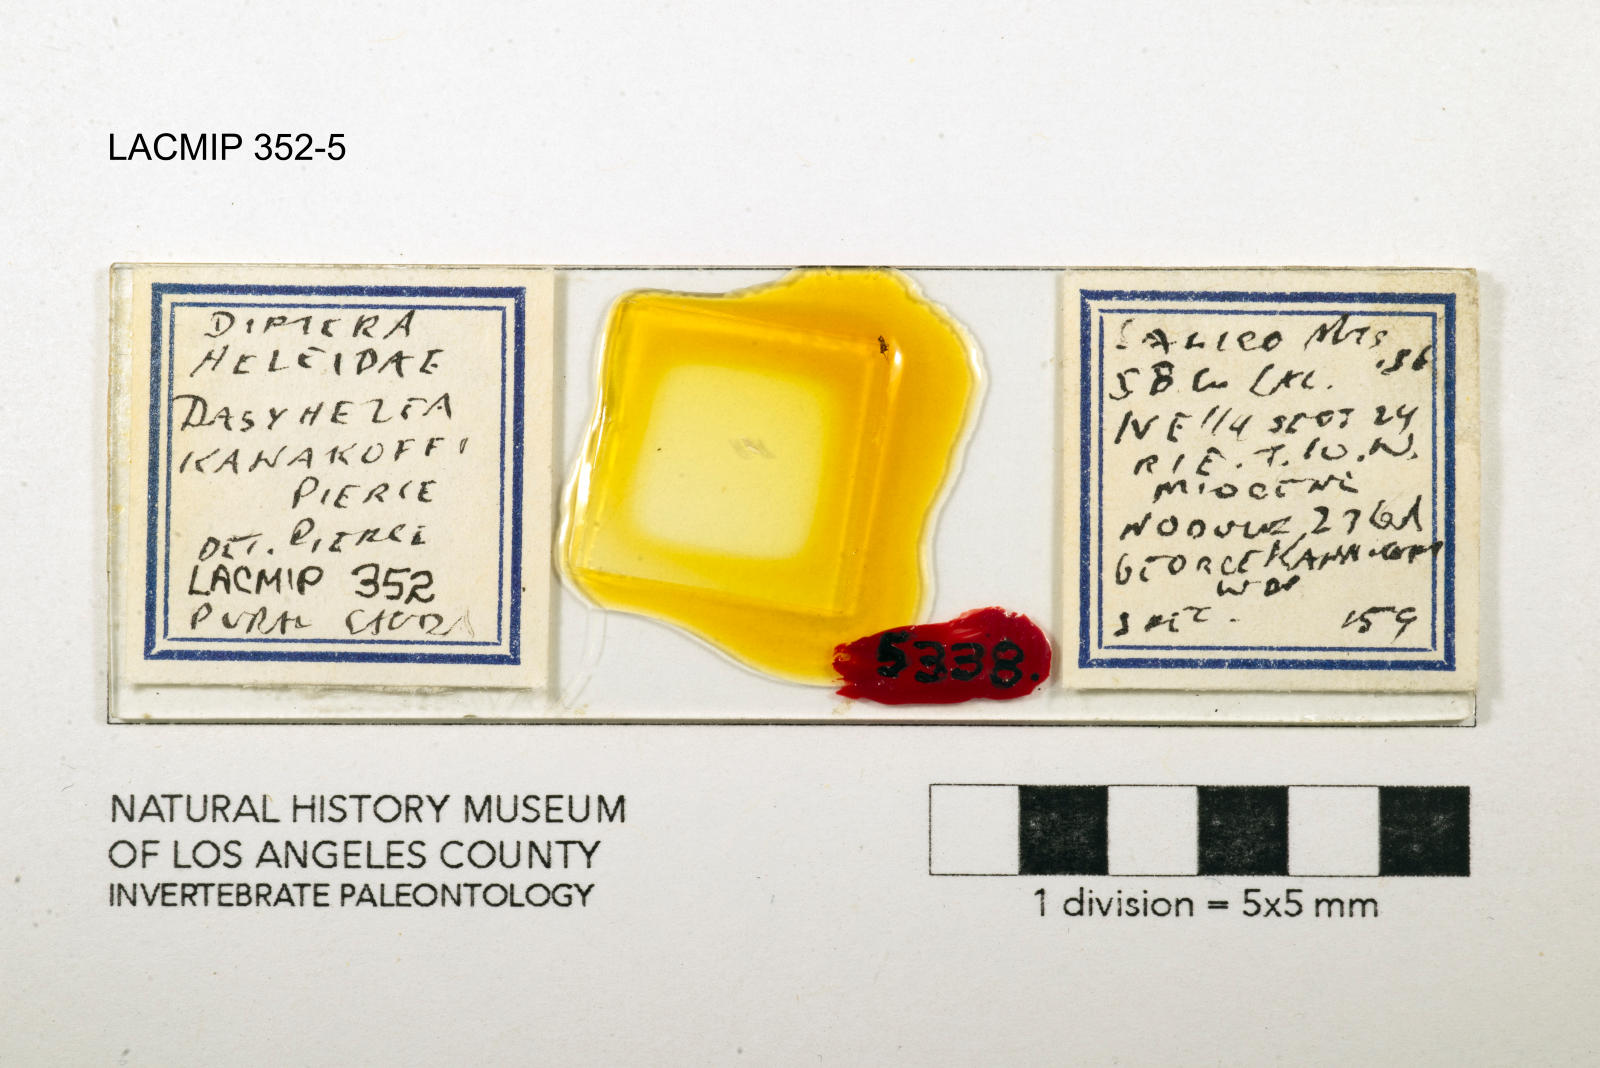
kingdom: Animalia
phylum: Arthropoda
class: Insecta
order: Diptera
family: Ceratopogonidae
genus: Dasyhelea
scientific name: Dasyhelea kanakoffi
